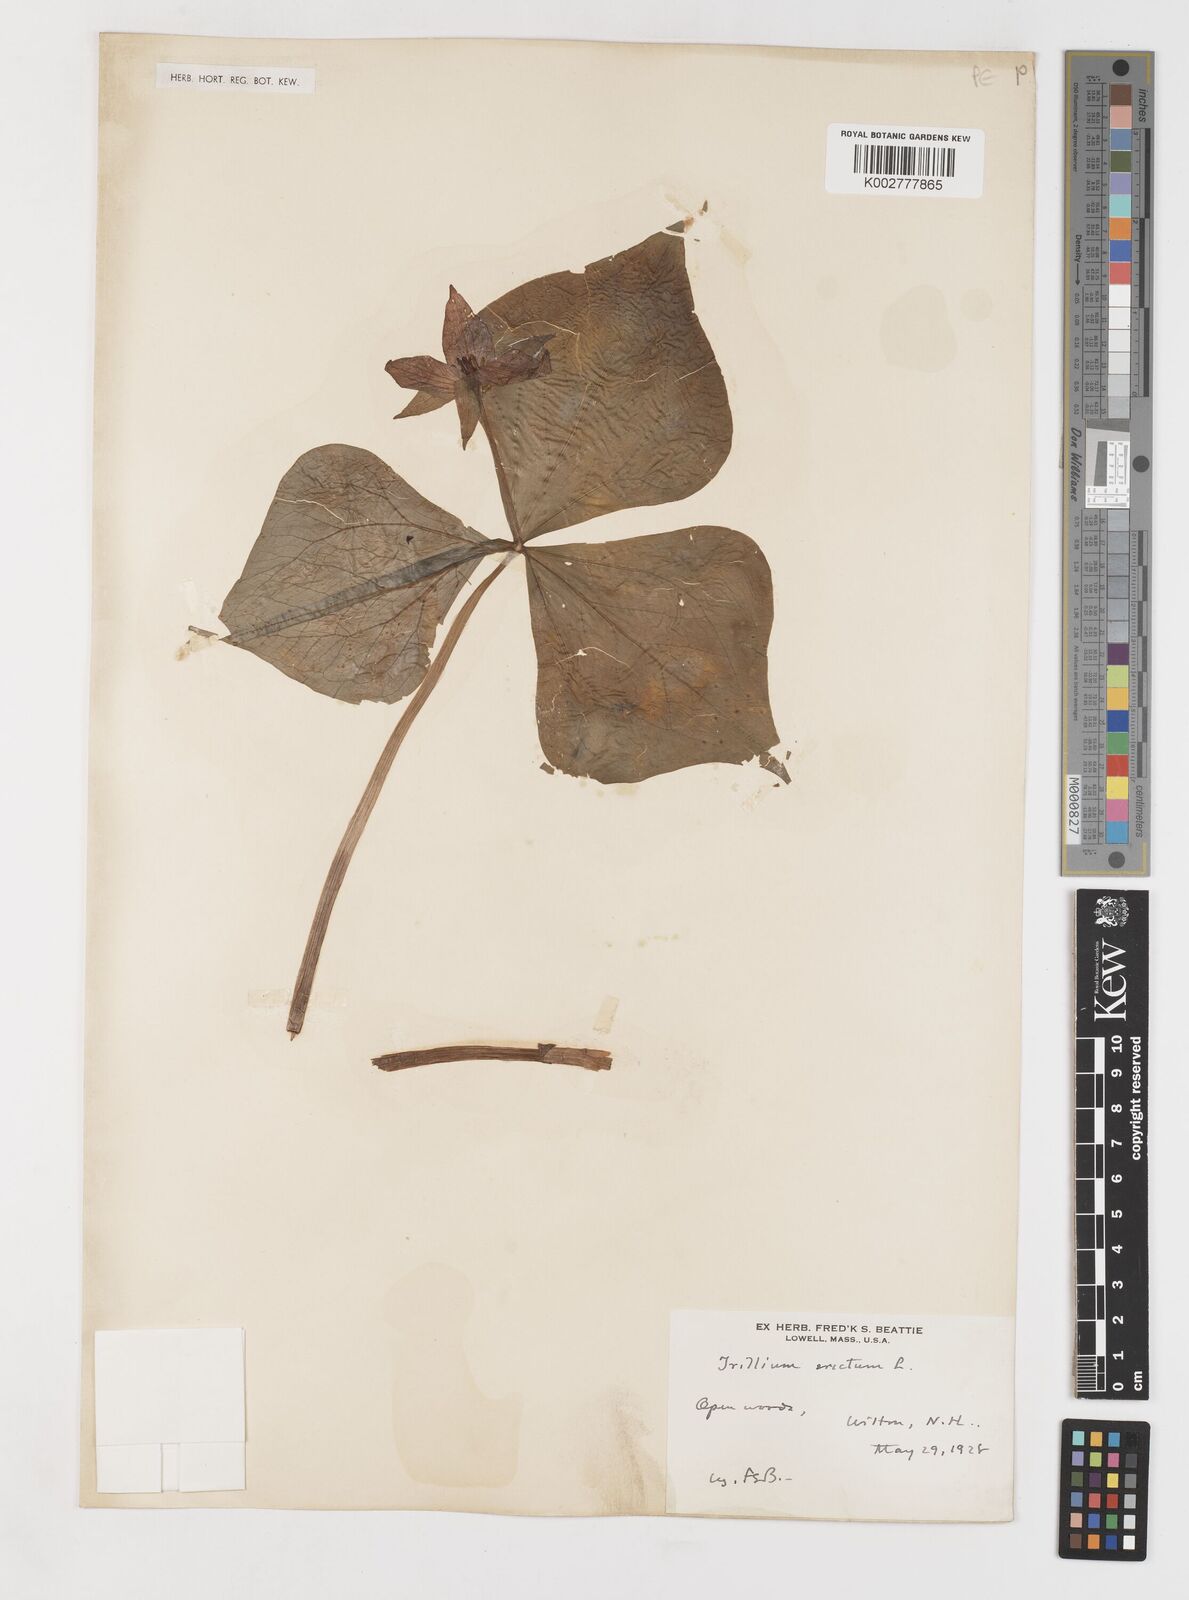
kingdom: Plantae
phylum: Tracheophyta
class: Liliopsida
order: Liliales
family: Melanthiaceae
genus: Trillium
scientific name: Trillium erectum
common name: Purple trillium
